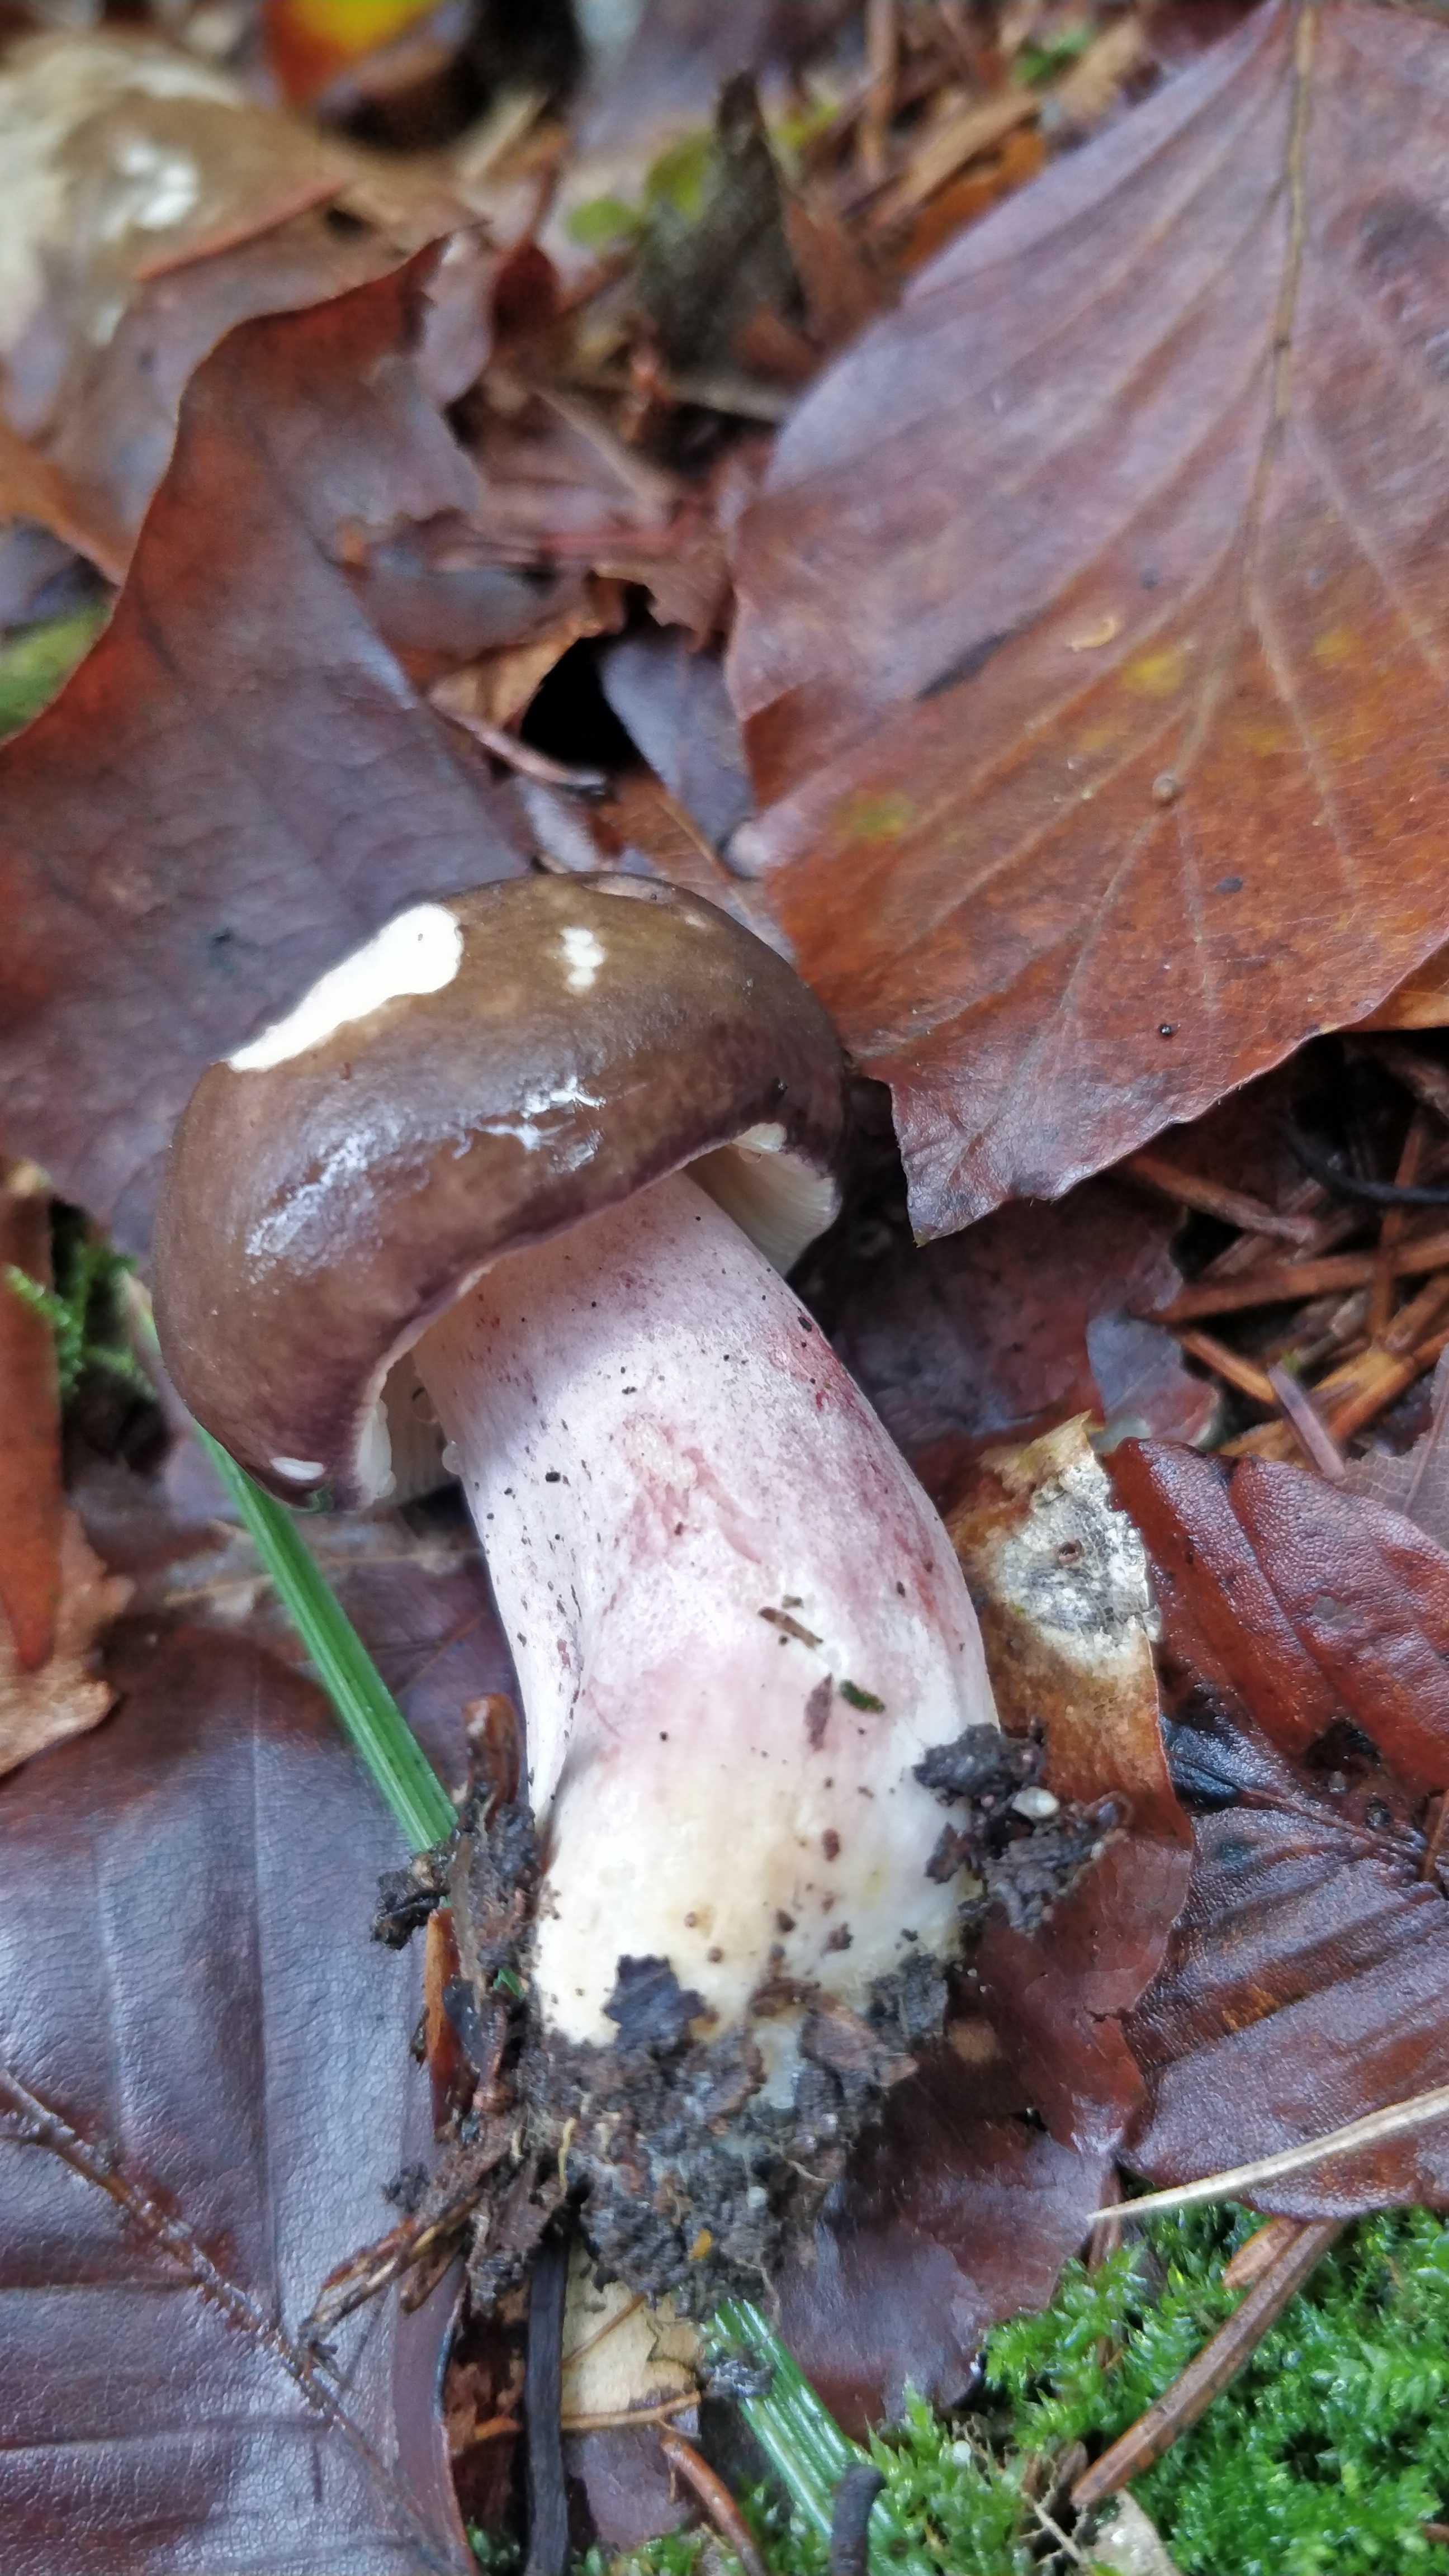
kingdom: Fungi
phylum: Basidiomycota
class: Agaricomycetes
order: Russulales
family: Russulaceae
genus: Russula
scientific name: Russula
